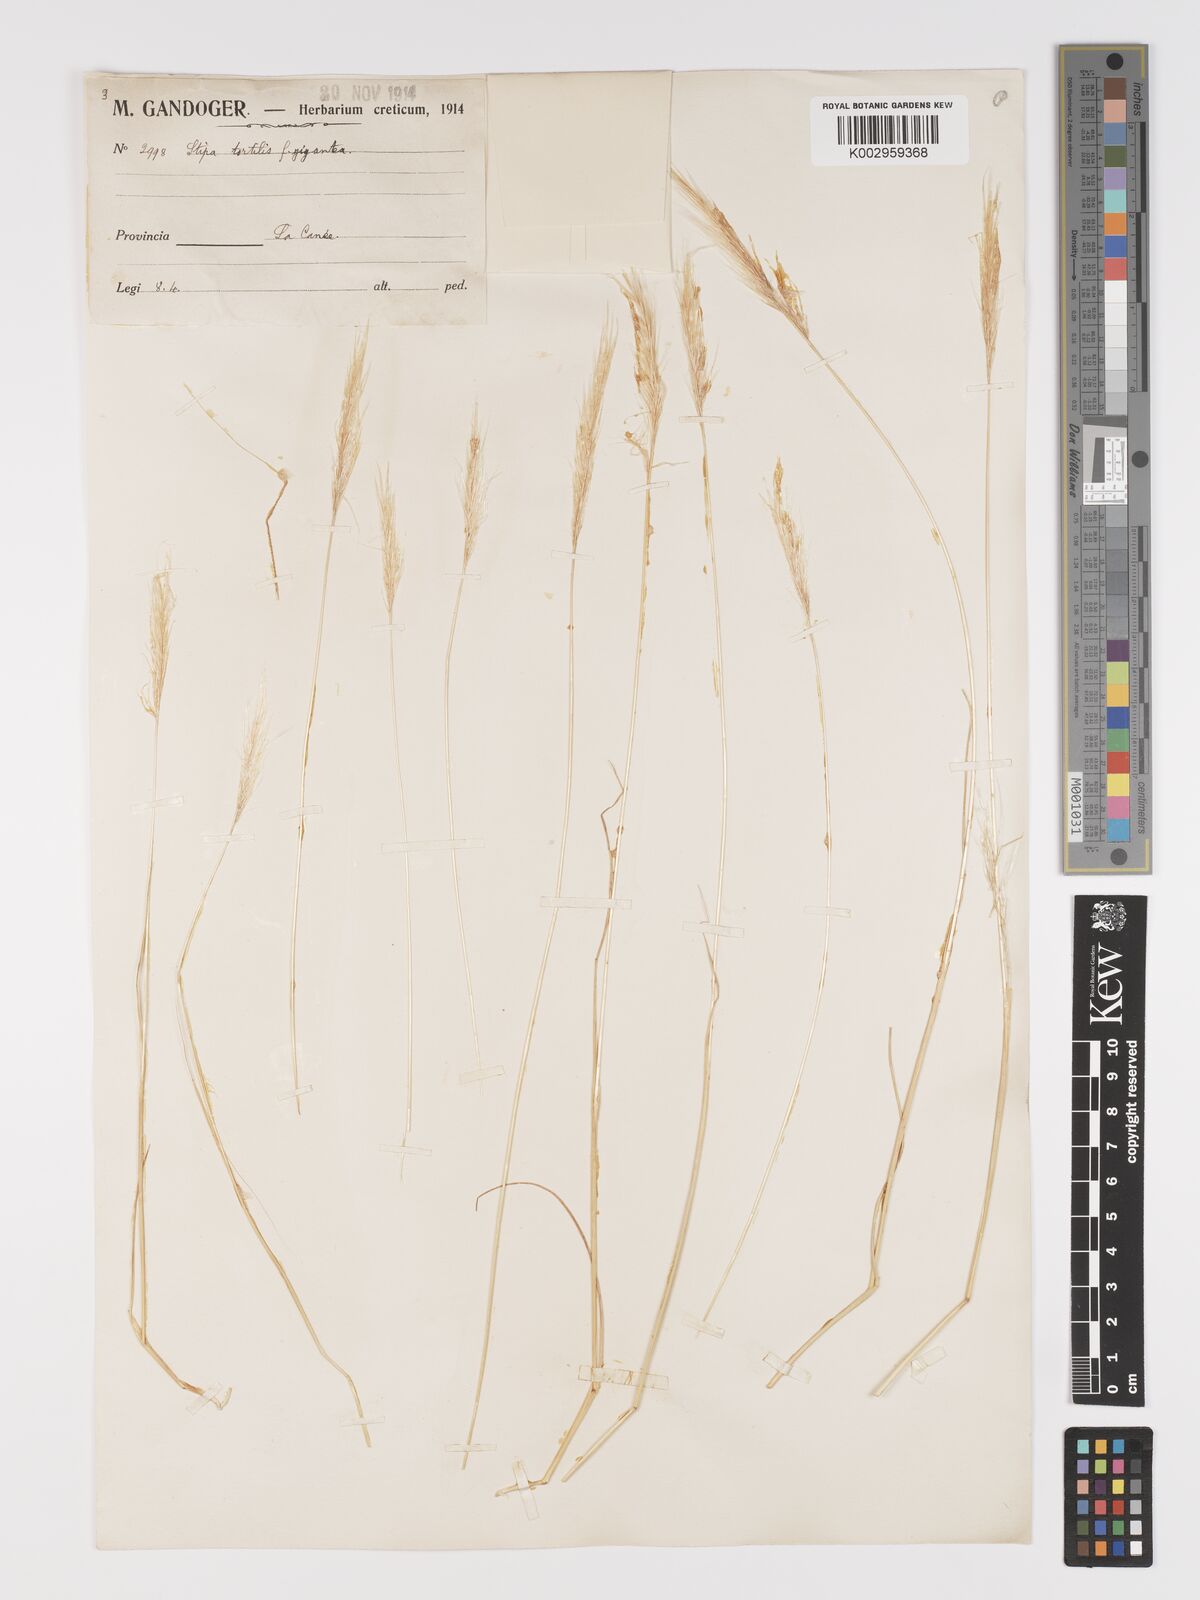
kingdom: Plantae
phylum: Tracheophyta
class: Liliopsida
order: Poales
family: Poaceae
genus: Stipellula
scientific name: Stipellula capensis
